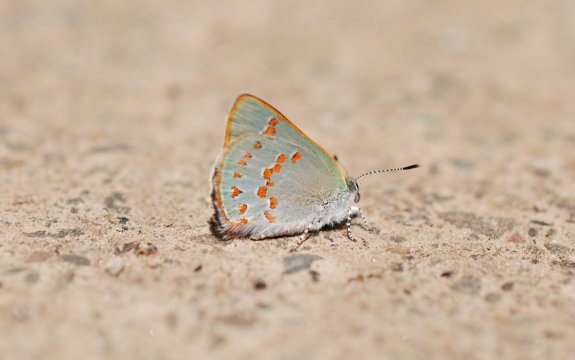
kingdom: Animalia
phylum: Arthropoda
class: Insecta
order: Lepidoptera
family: Lycaenidae
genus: Erora
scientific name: Erora laeta
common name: Early Hairstreak
